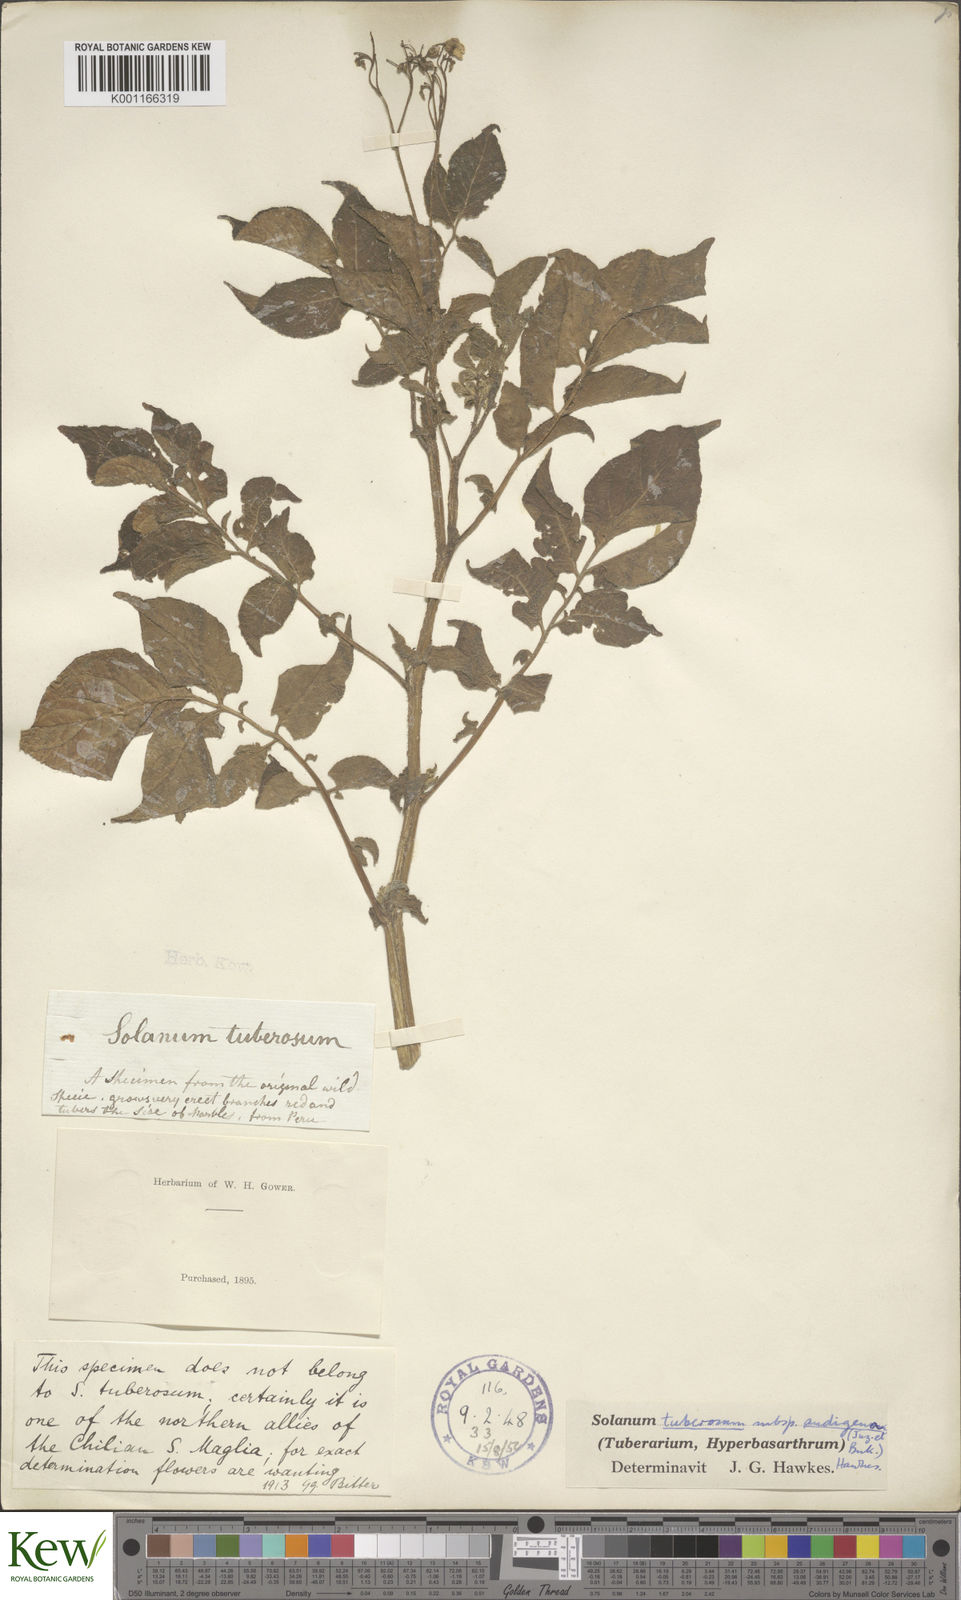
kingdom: Plantae
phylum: Tracheophyta
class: Magnoliopsida
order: Solanales
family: Solanaceae
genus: Solanum
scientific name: Solanum tuberosum
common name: Potato
